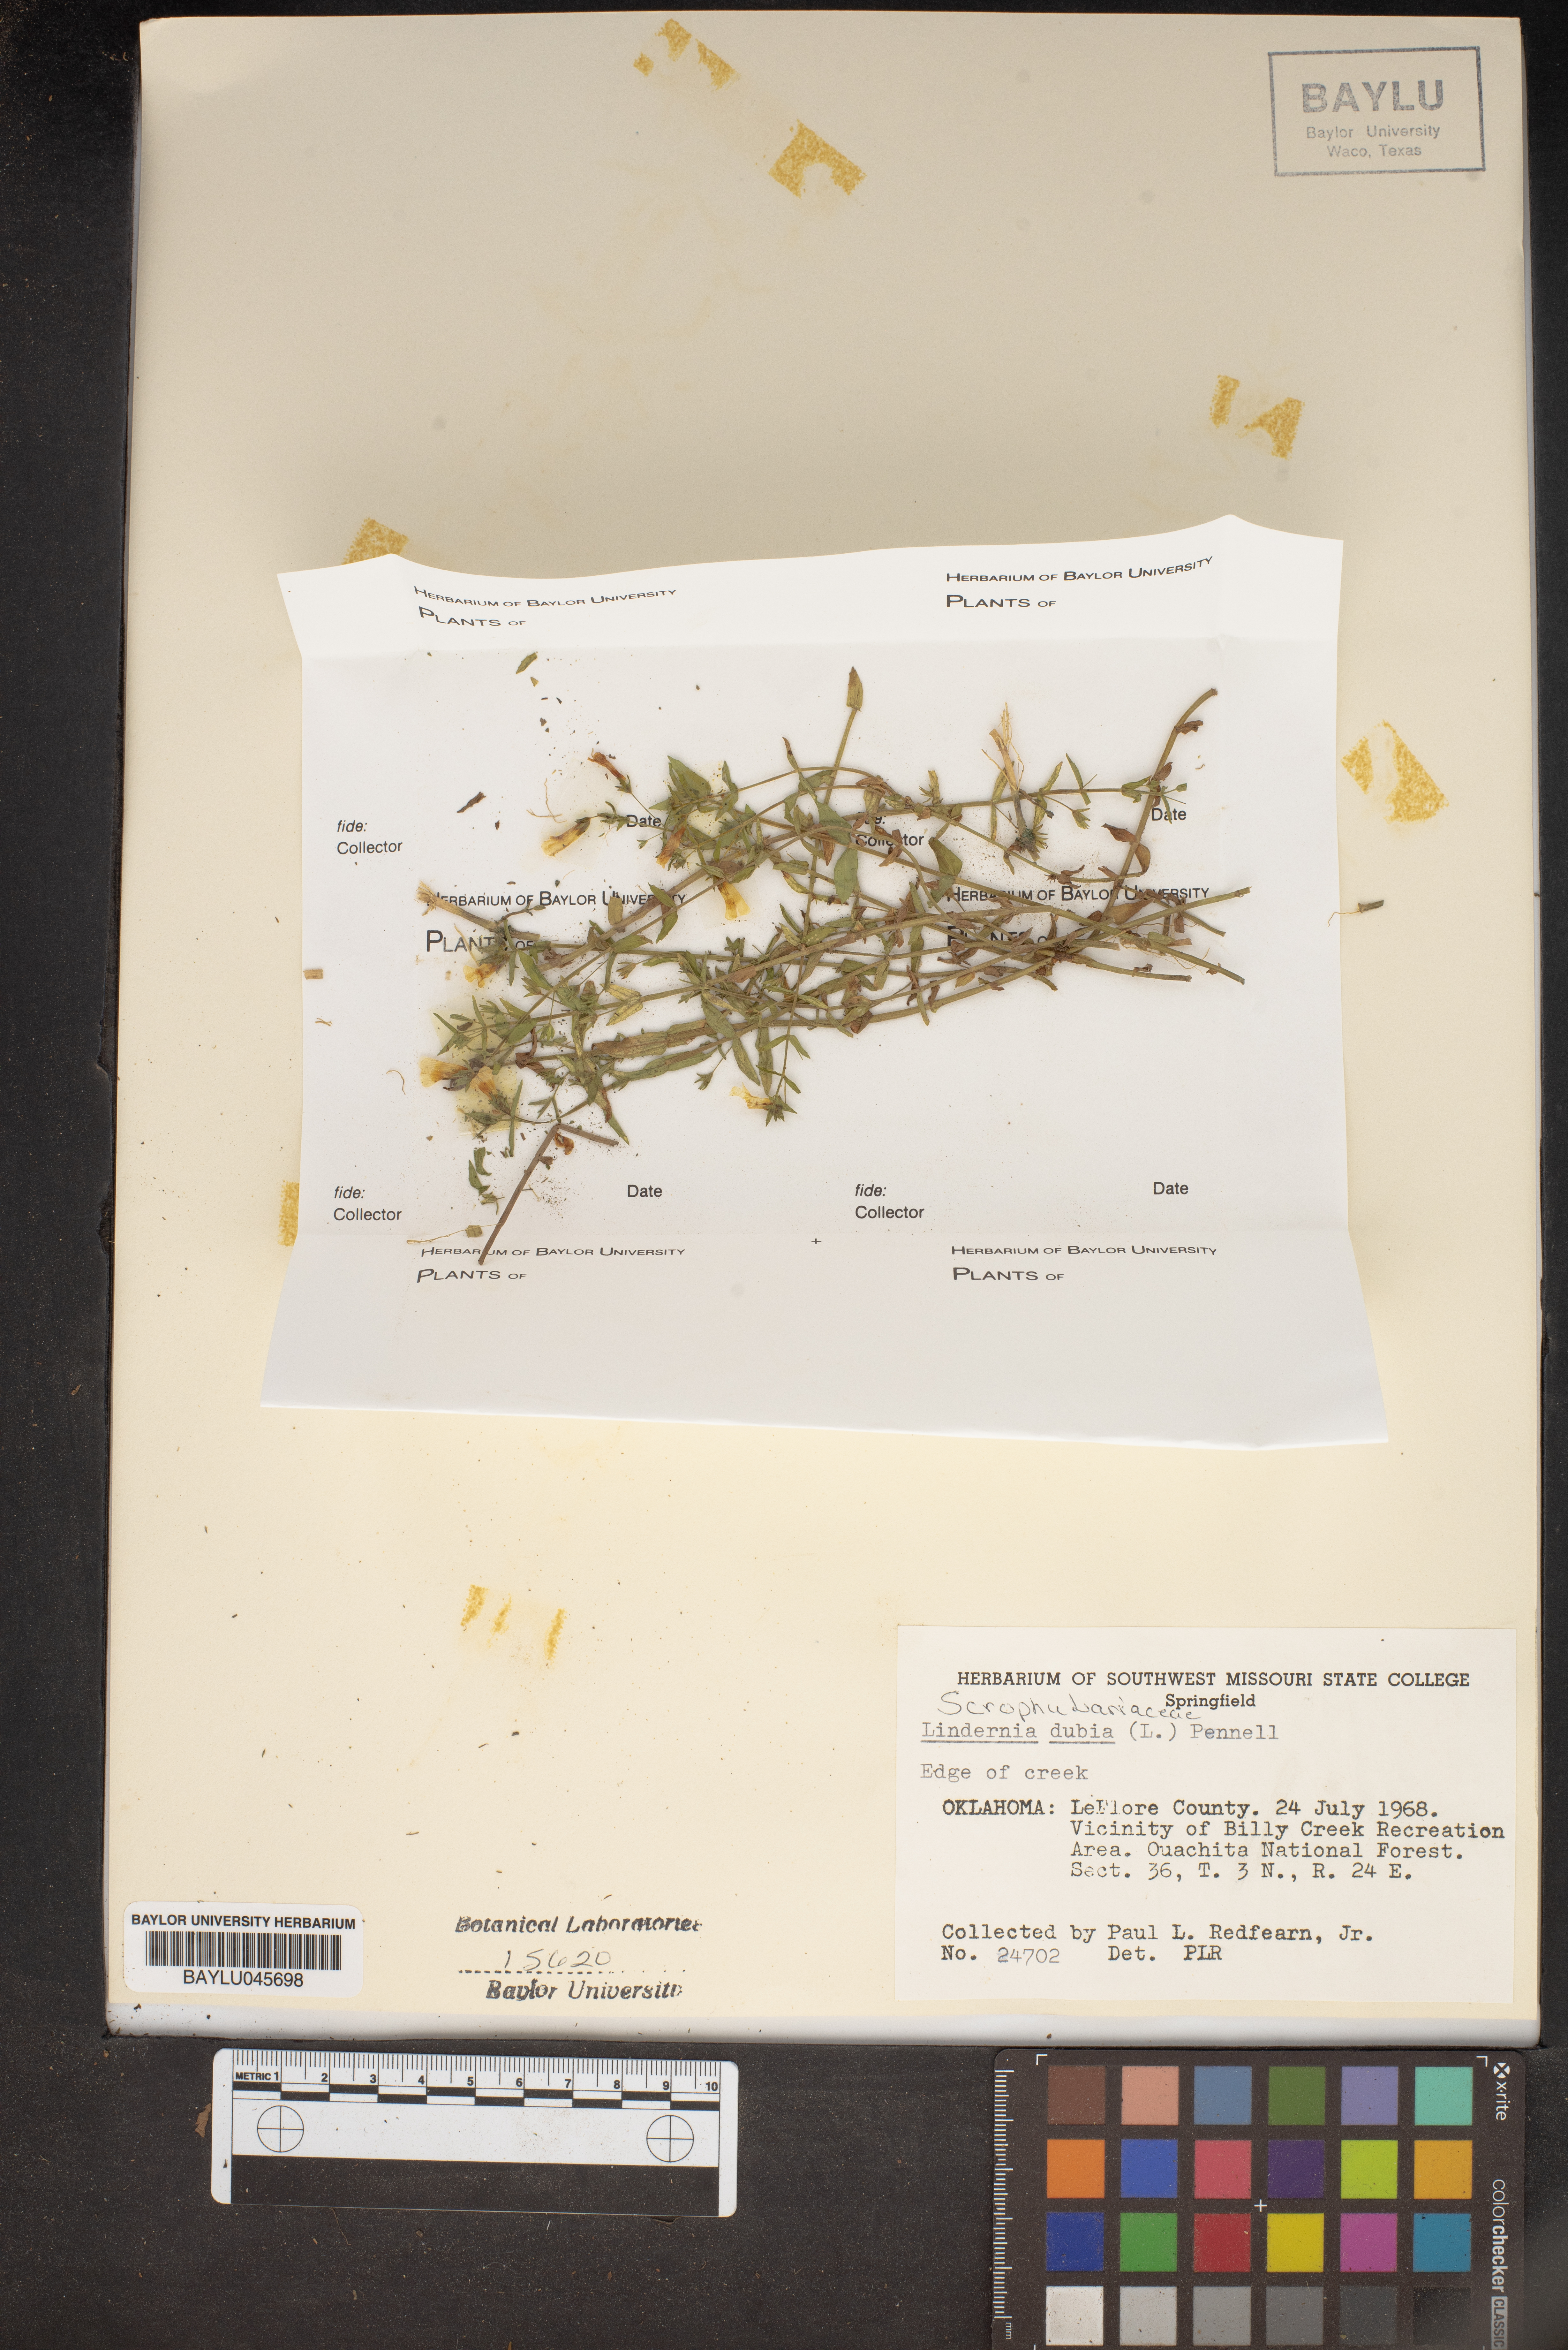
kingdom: Plantae
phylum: Tracheophyta
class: Magnoliopsida
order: Lamiales
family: Linderniaceae
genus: Lindernia
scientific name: Lindernia dubia
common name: Annual false pimpernel
